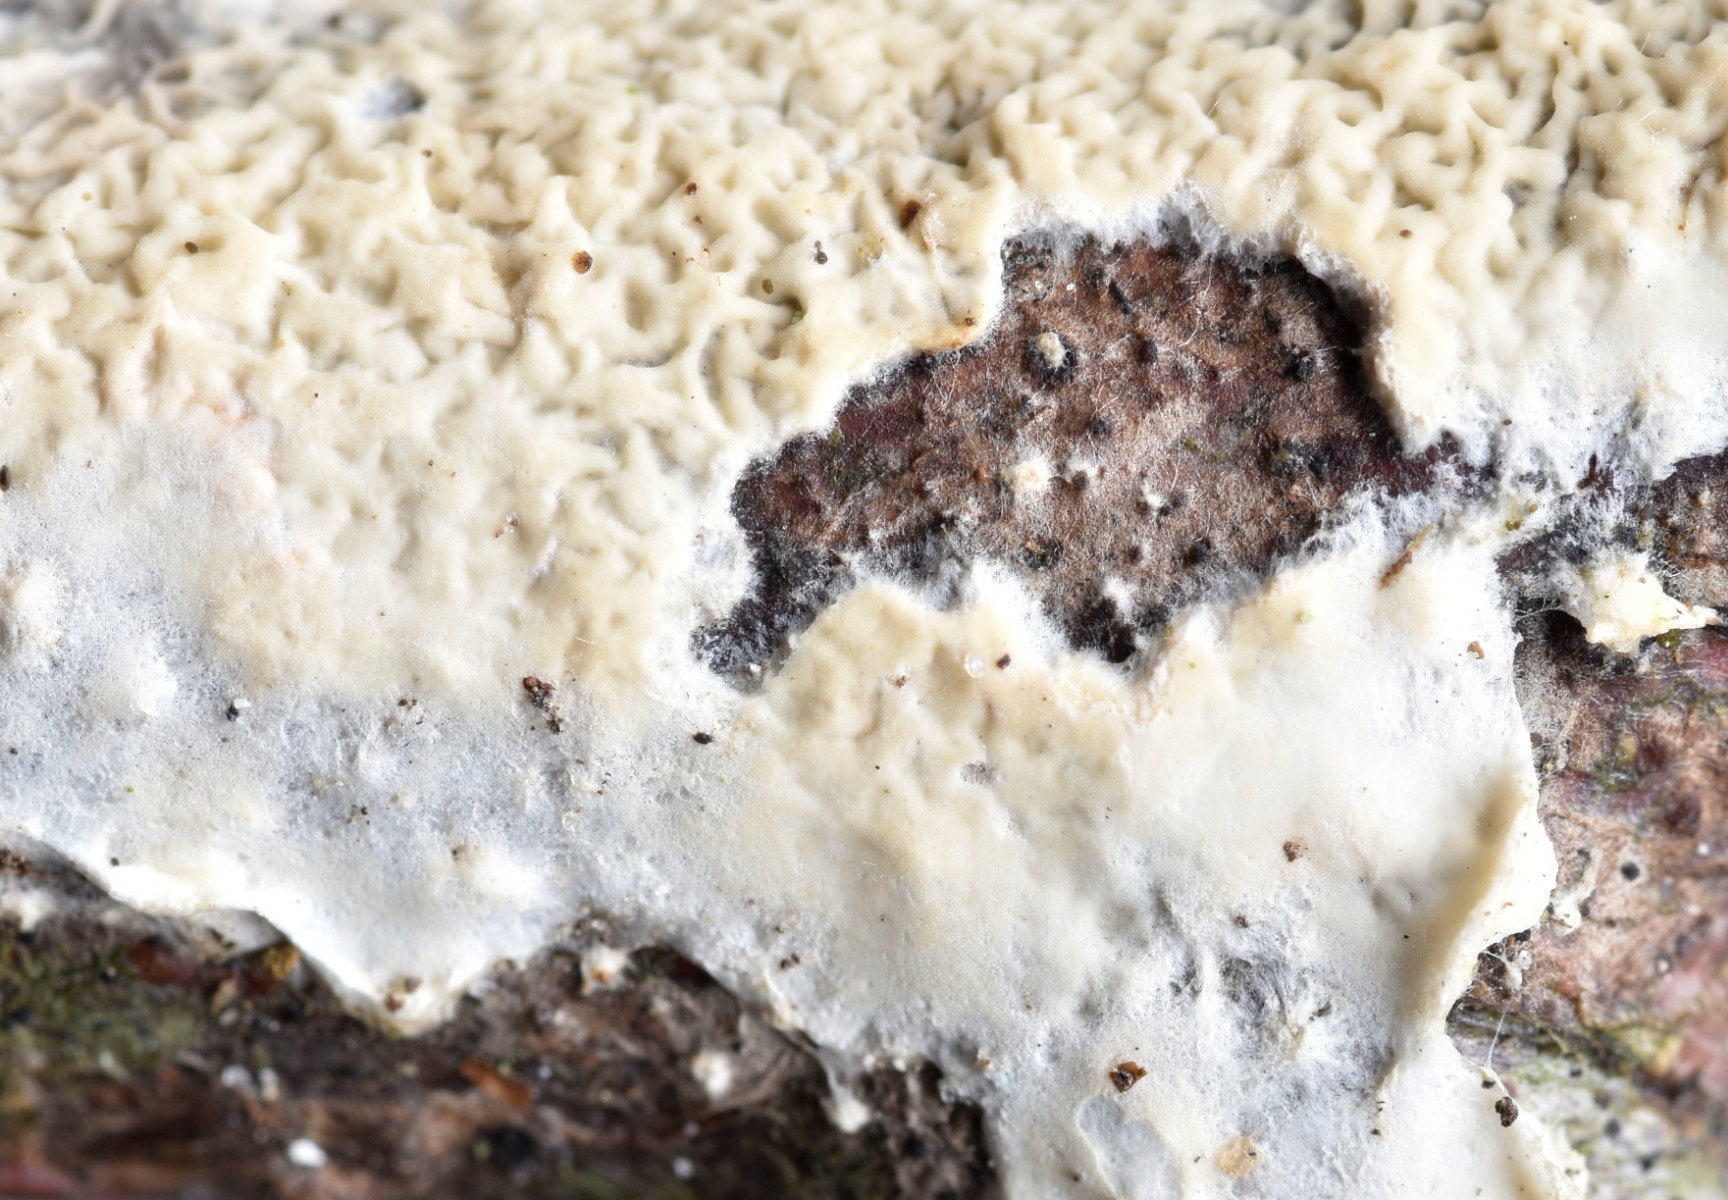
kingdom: Fungi
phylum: Basidiomycota
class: Agaricomycetes
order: Polyporales
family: Irpicaceae
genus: Byssomerulius
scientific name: Byssomerulius corium
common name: læder-åresvamp
